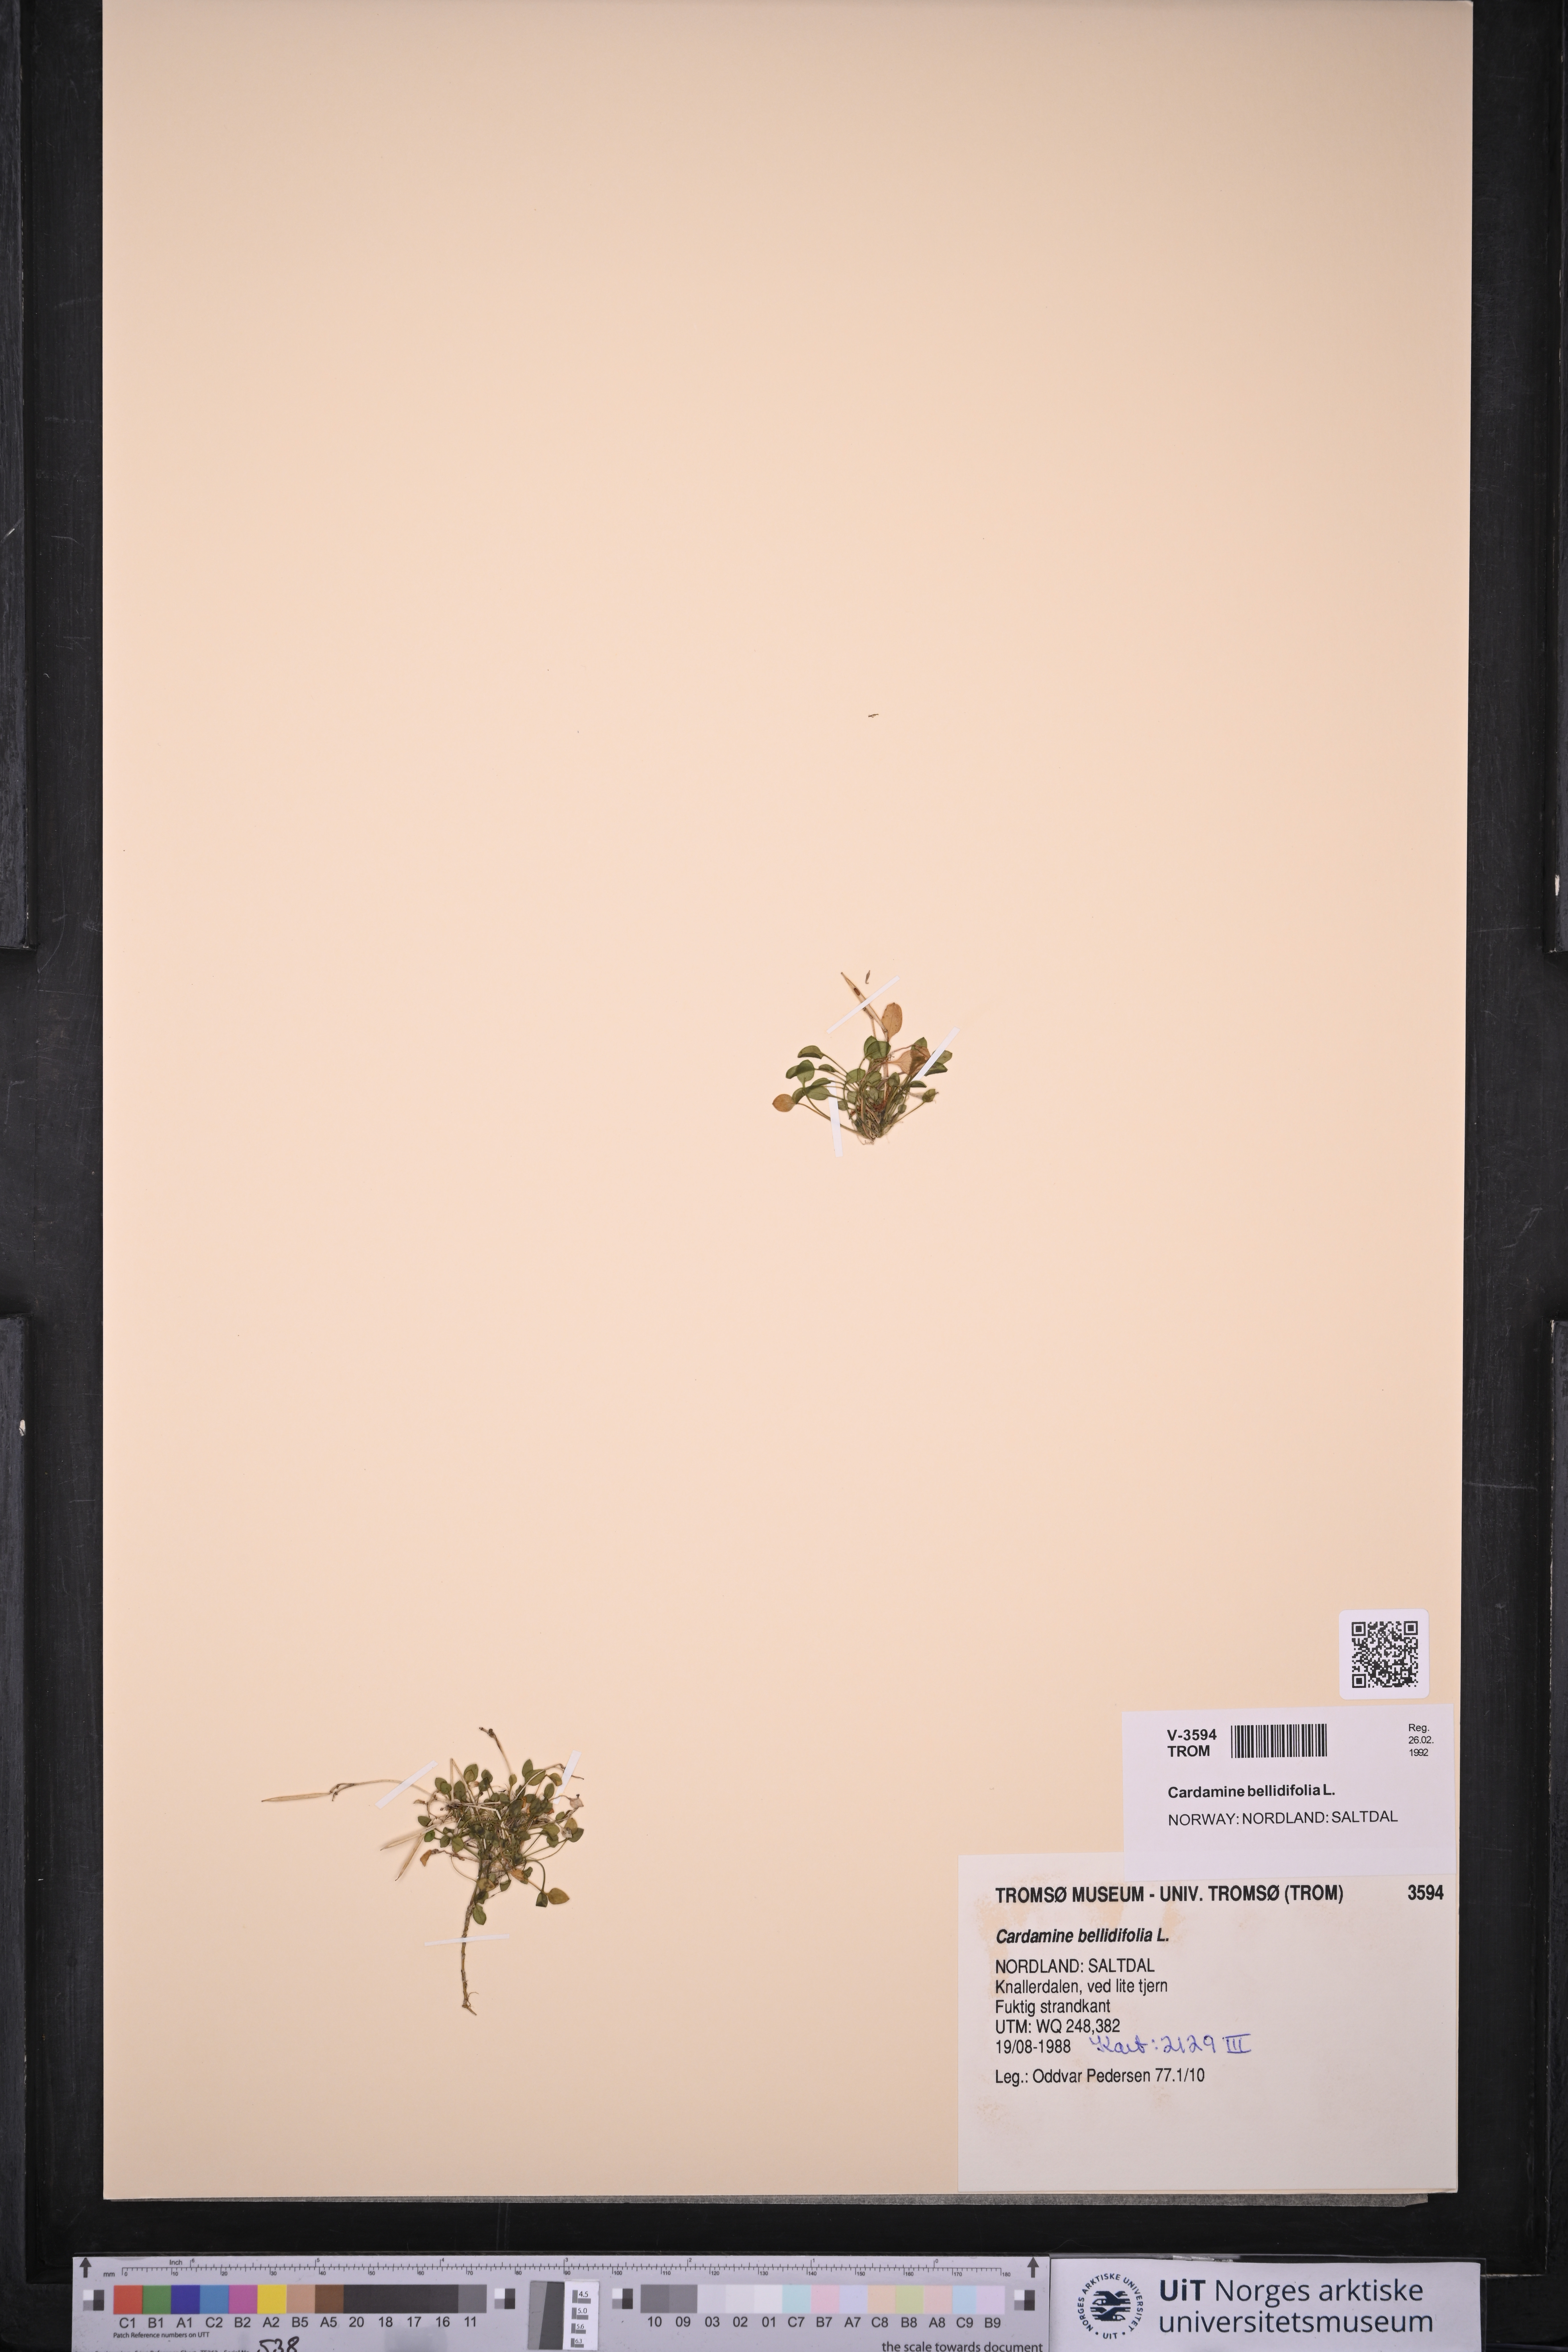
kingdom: Plantae
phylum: Tracheophyta
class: Magnoliopsida
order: Brassicales
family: Brassicaceae
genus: Cardamine
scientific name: Cardamine bellidifolia
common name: Alpine bittercress
